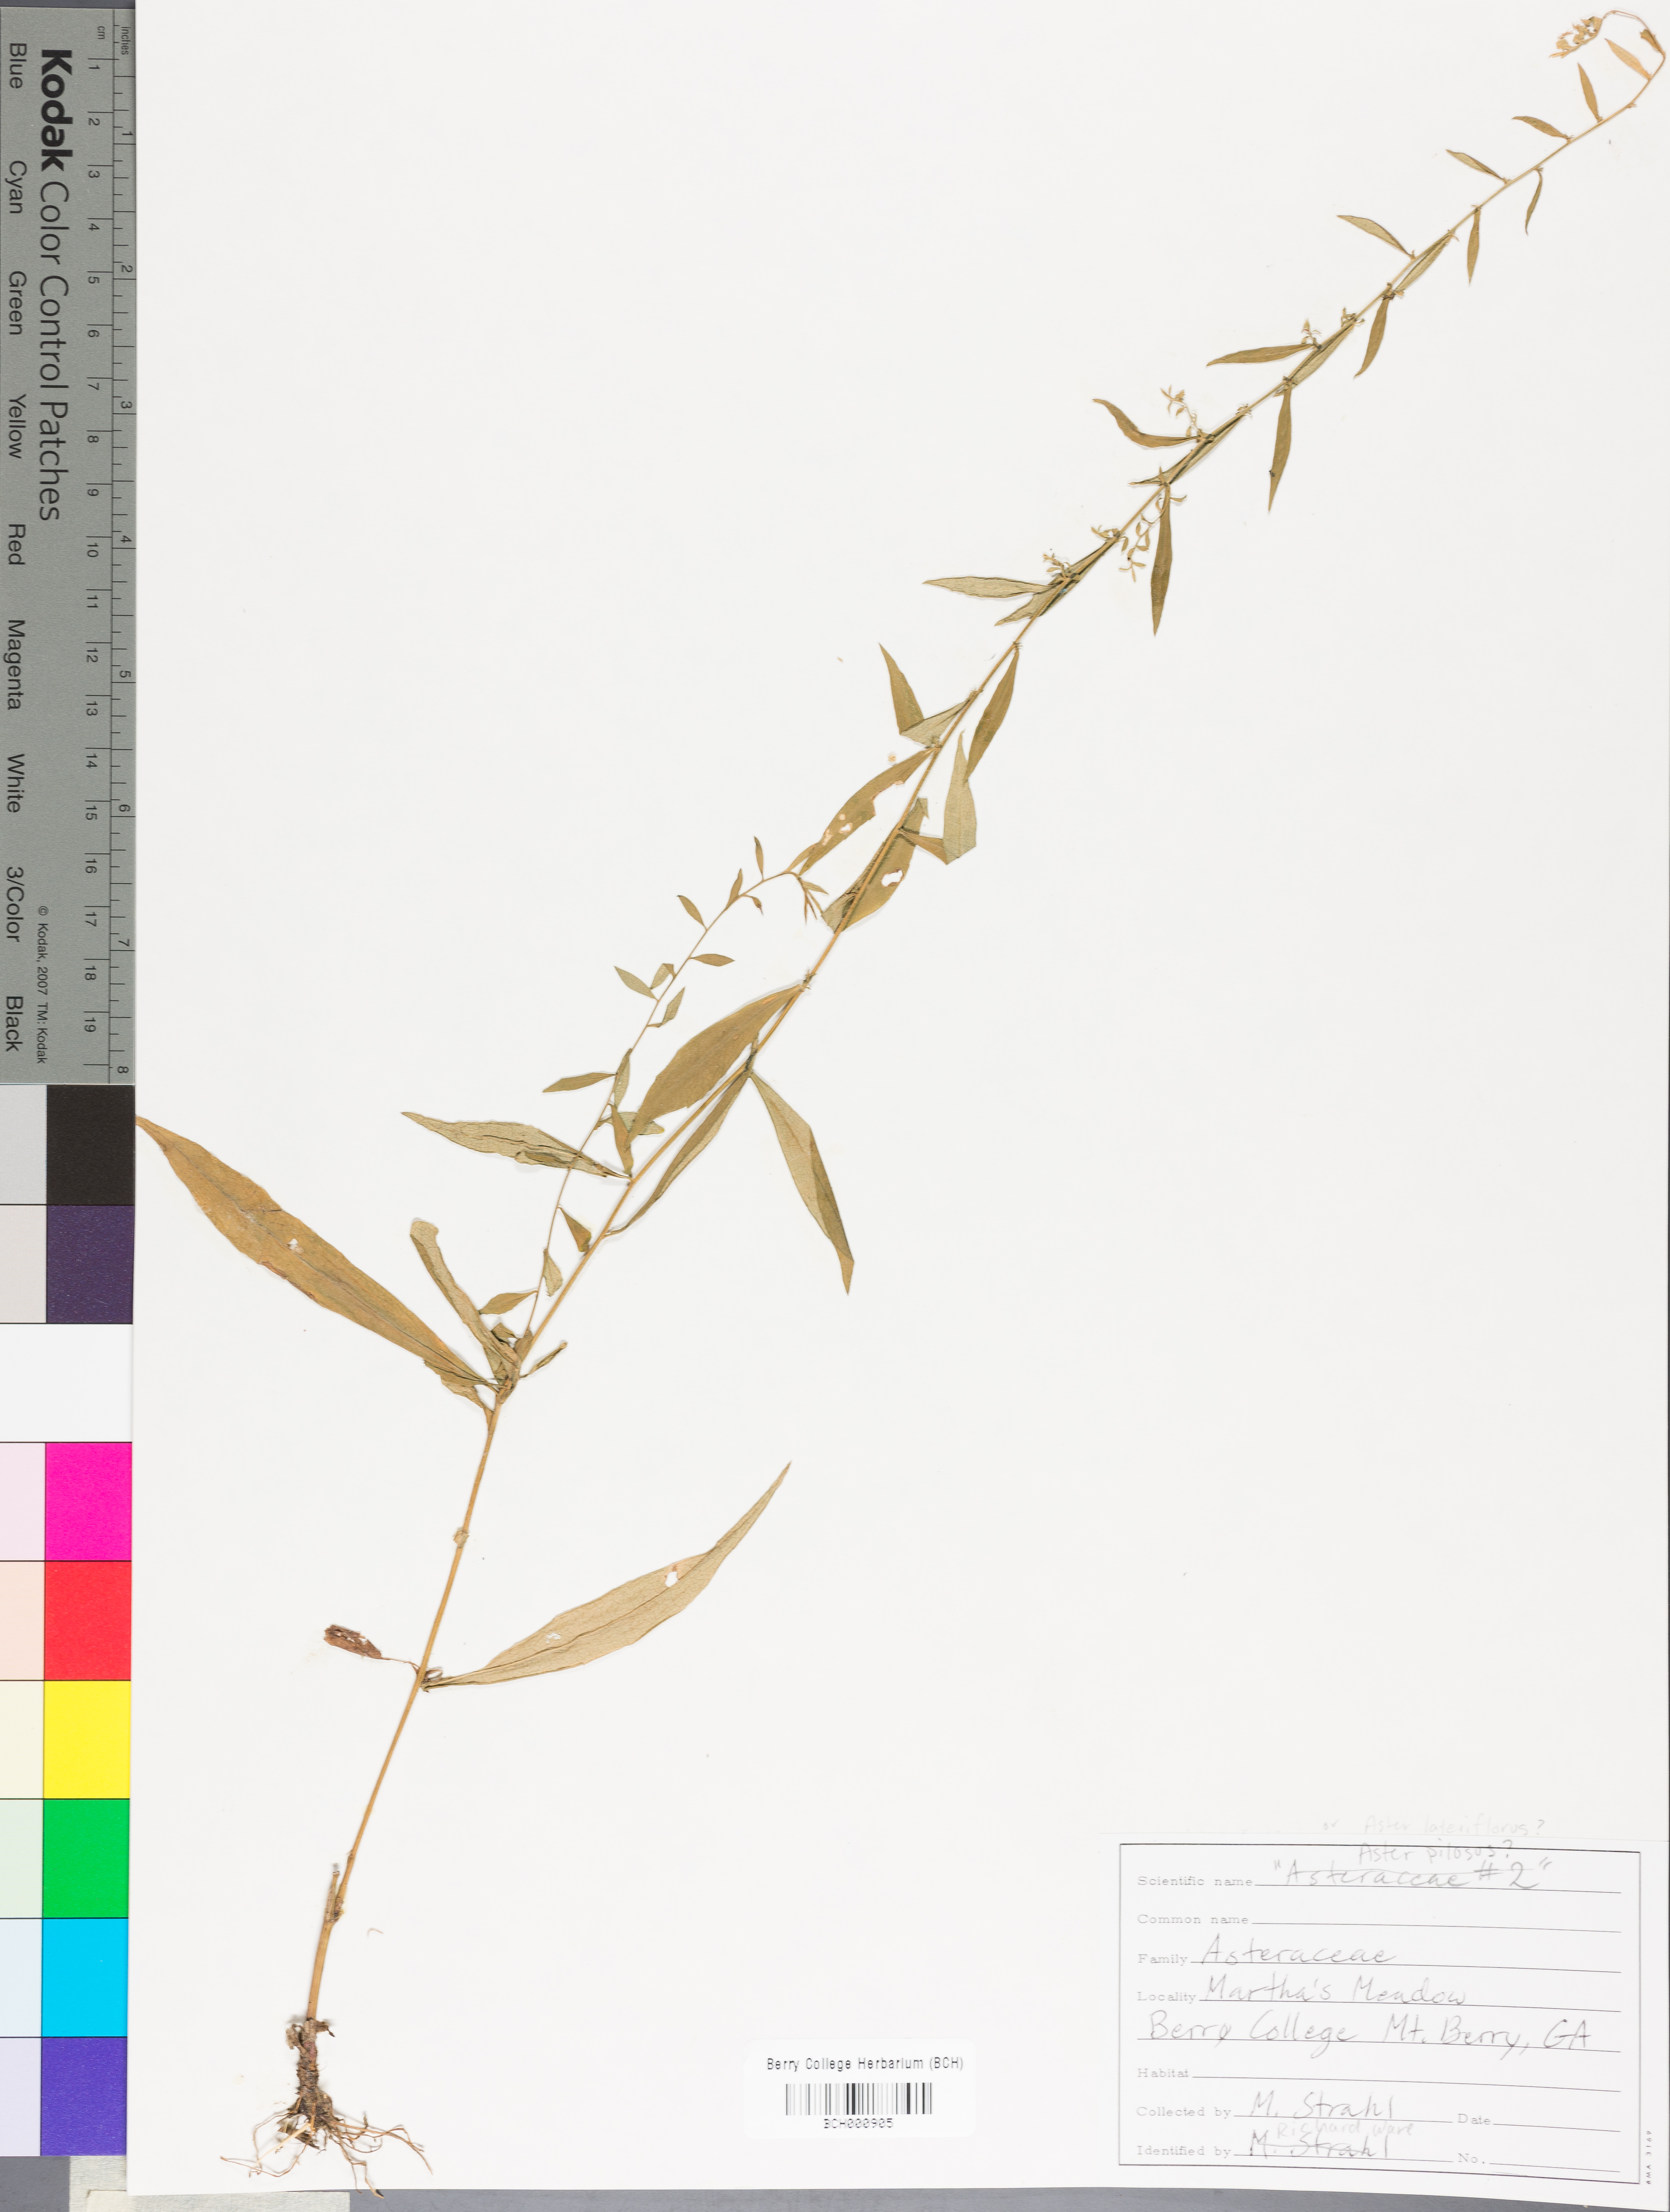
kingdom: Plantae
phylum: Tracheophyta
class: Magnoliopsida
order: Lamiales
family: Acanthaceae
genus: Adhatoda
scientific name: Adhatoda
